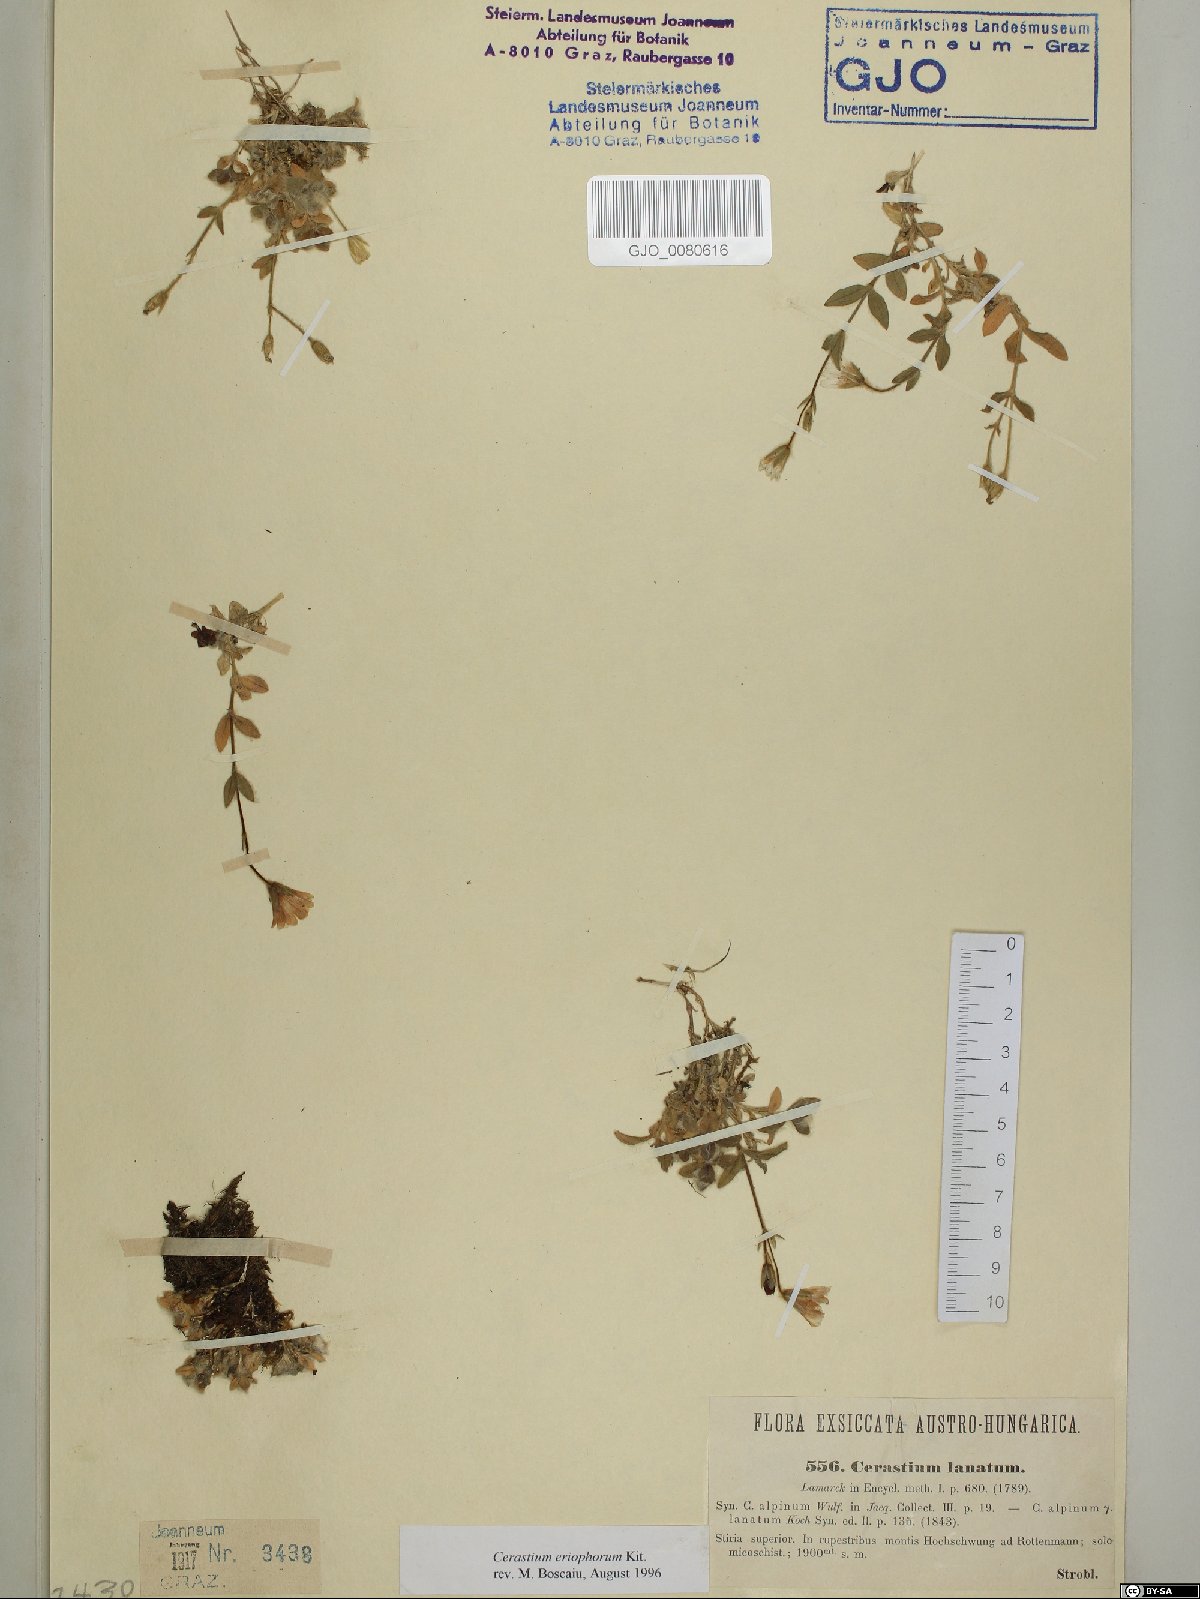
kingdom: Plantae
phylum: Tracheophyta
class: Magnoliopsida
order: Caryophyllales
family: Caryophyllaceae
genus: Cerastium
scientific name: Cerastium eriophorum
